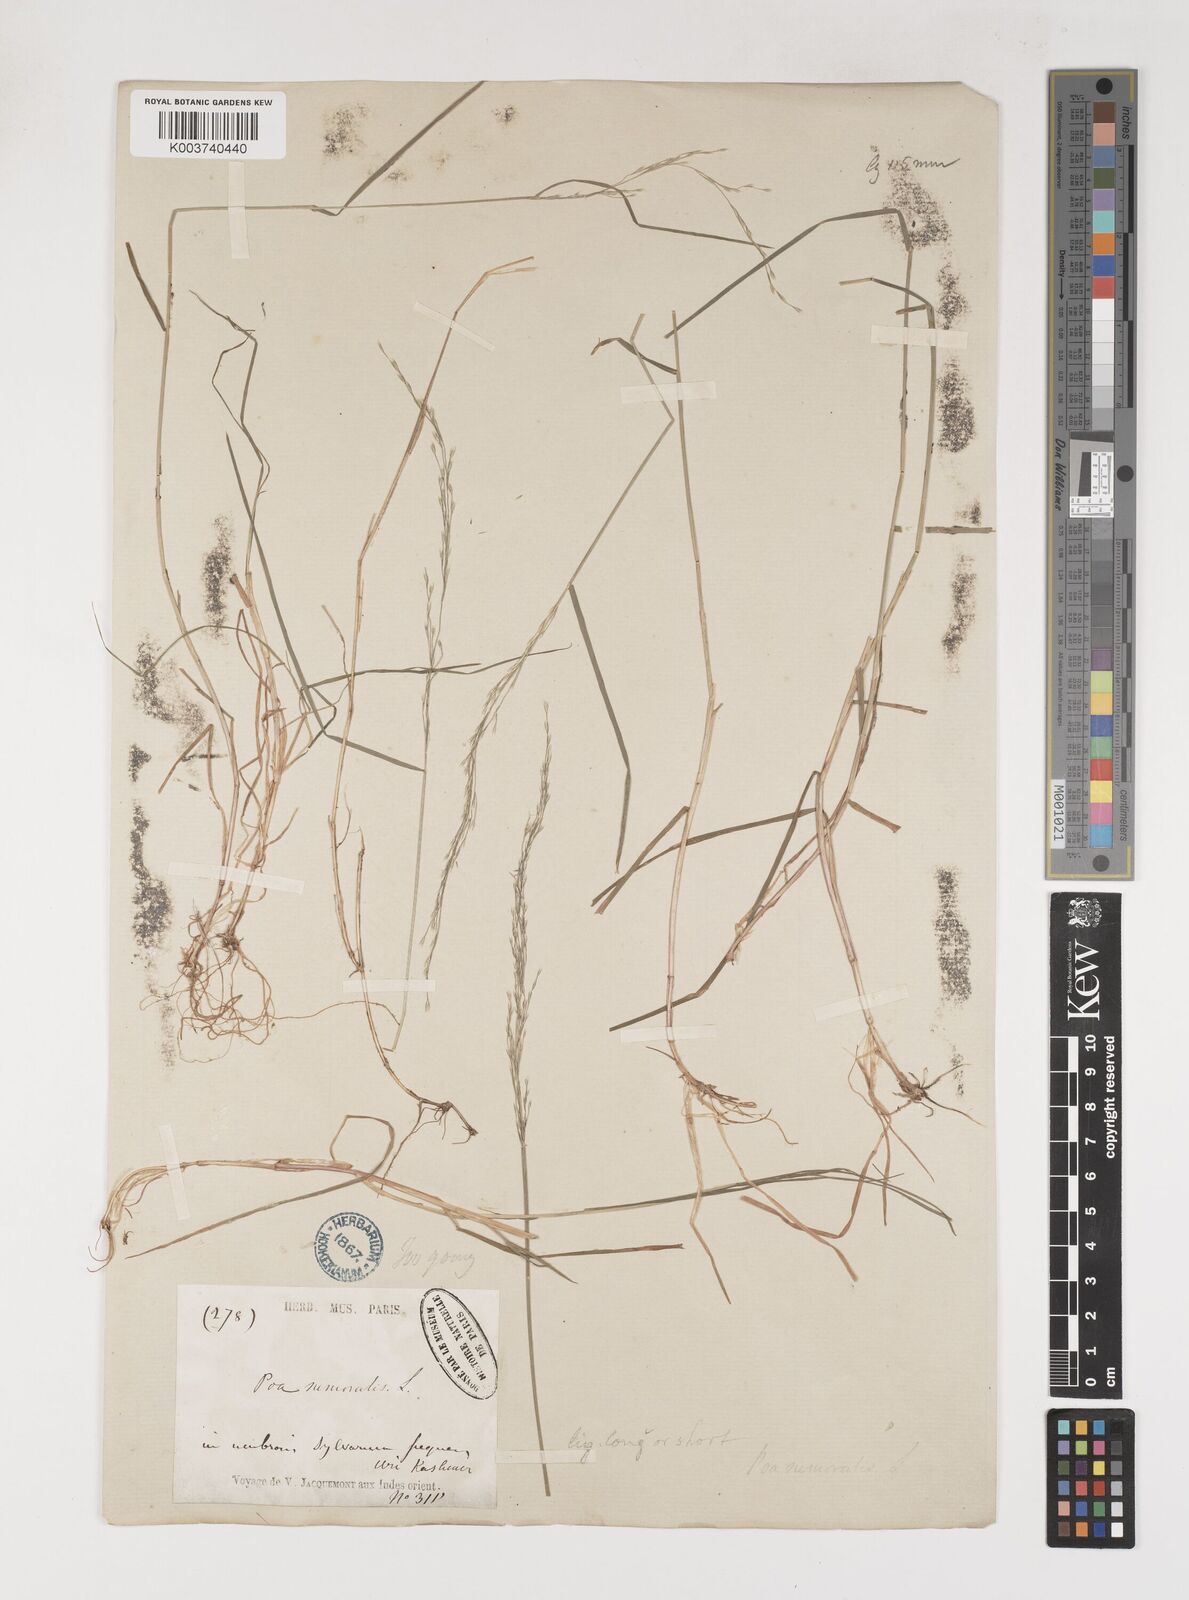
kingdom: Plantae
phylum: Tracheophyta
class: Liliopsida
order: Poales
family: Poaceae
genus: Poa
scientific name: Poa nemoralis
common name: Wood bluegrass
